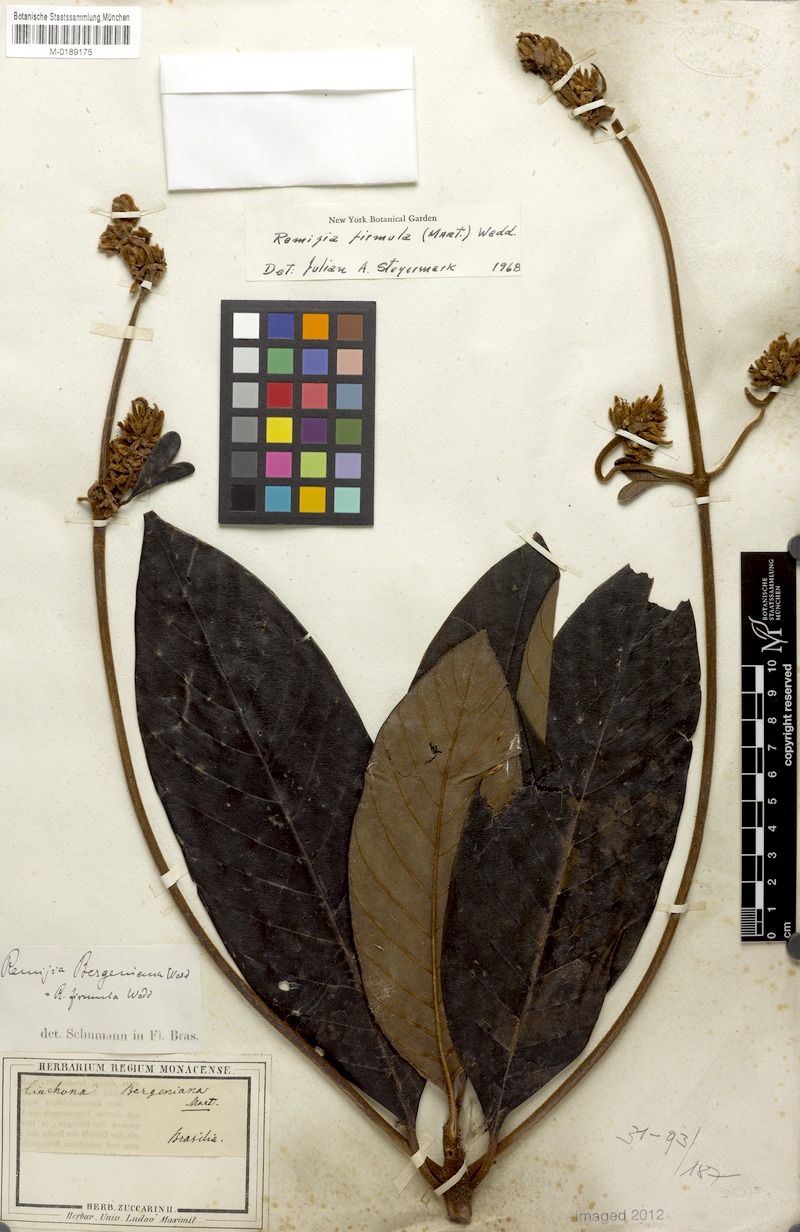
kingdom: Plantae
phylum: Tracheophyta
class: Magnoliopsida
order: Gentianales
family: Rubiaceae
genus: Remijia
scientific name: Remijia firmula
